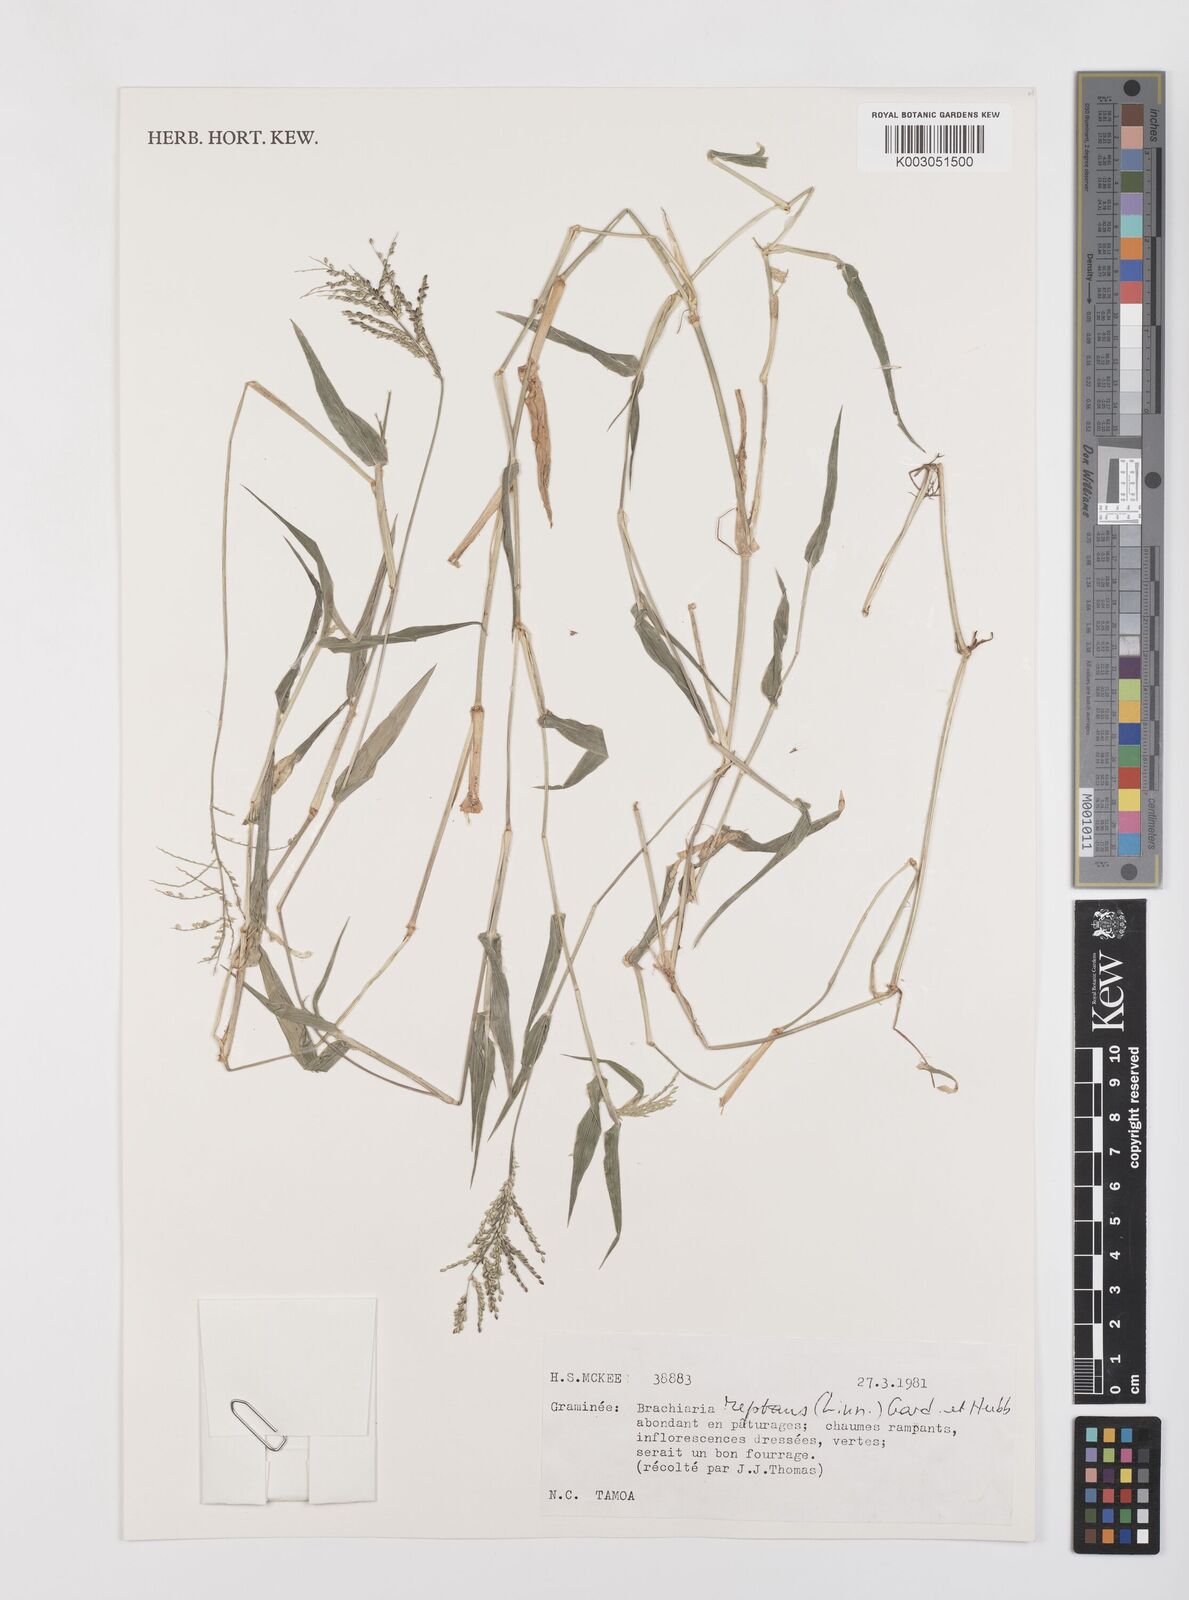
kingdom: Plantae
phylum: Tracheophyta
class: Liliopsida
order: Poales
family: Poaceae
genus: Urochloa
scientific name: Urochloa reptans
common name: Sprawling signalgrass
